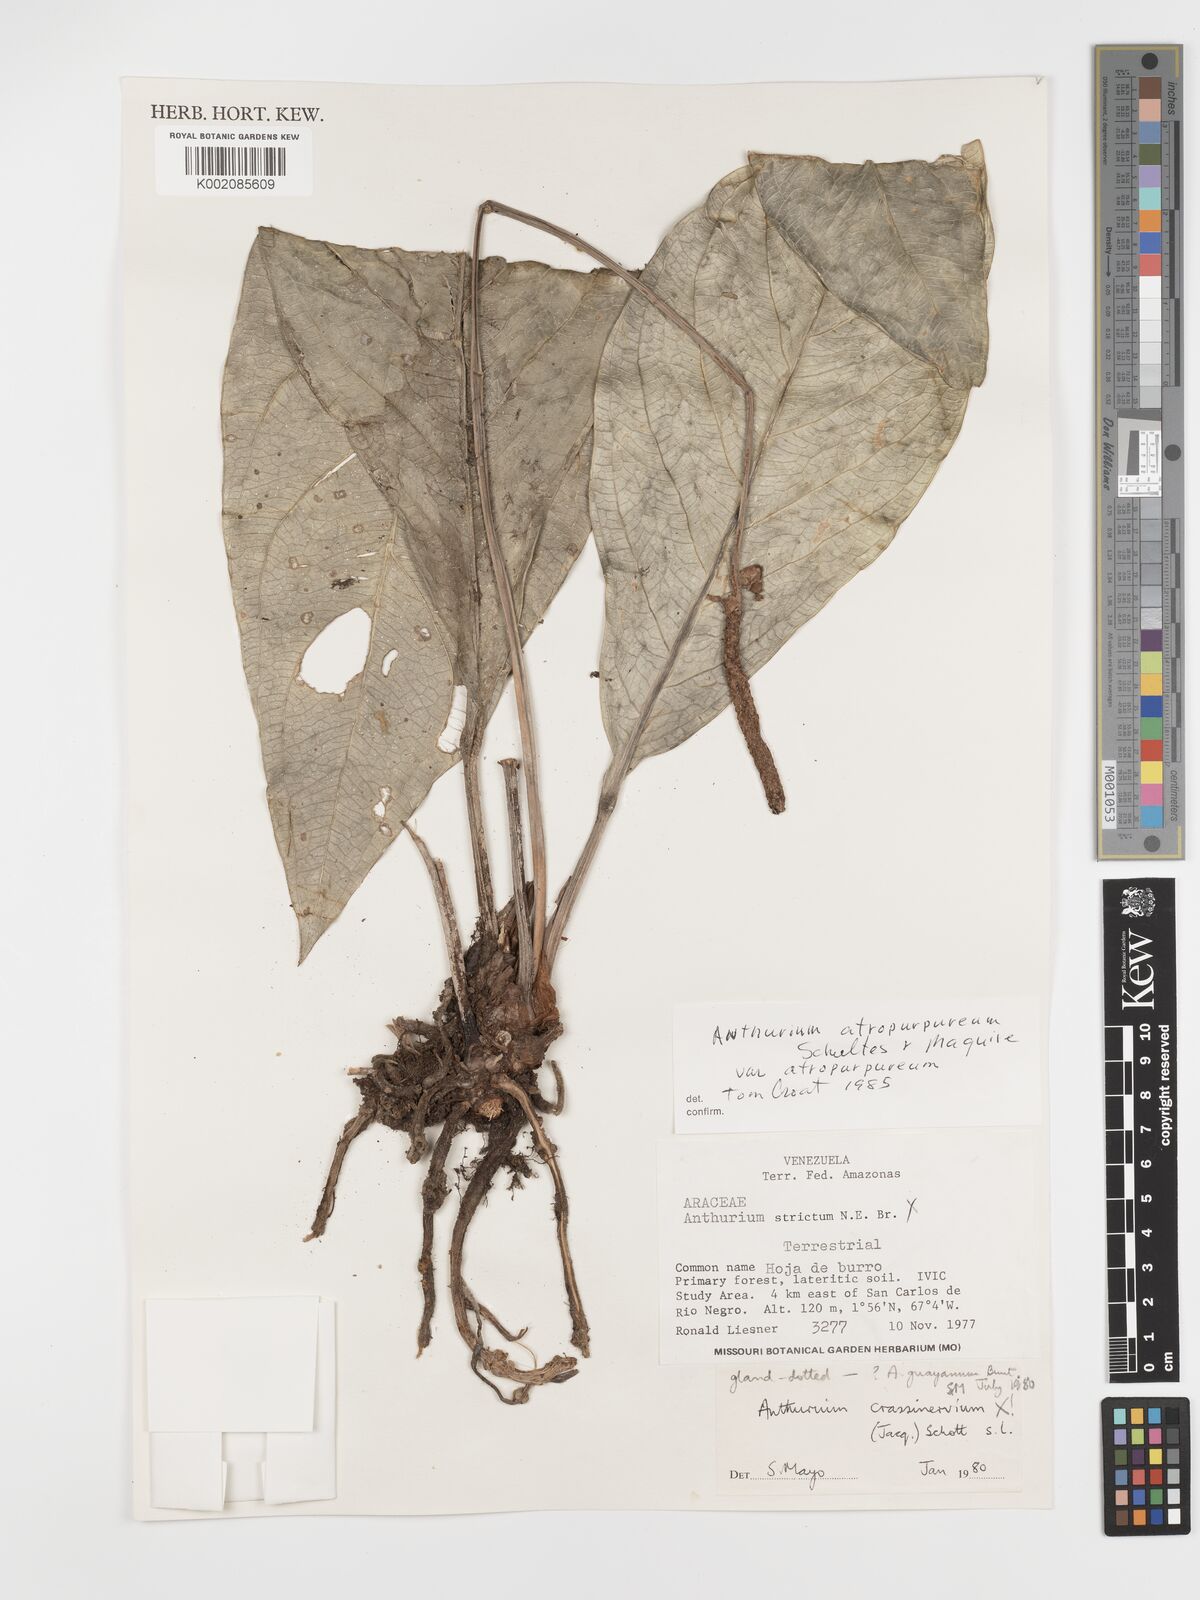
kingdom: Plantae
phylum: Tracheophyta
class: Liliopsida
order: Alismatales
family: Araceae
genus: Anthurium
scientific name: Anthurium atropurpureum
